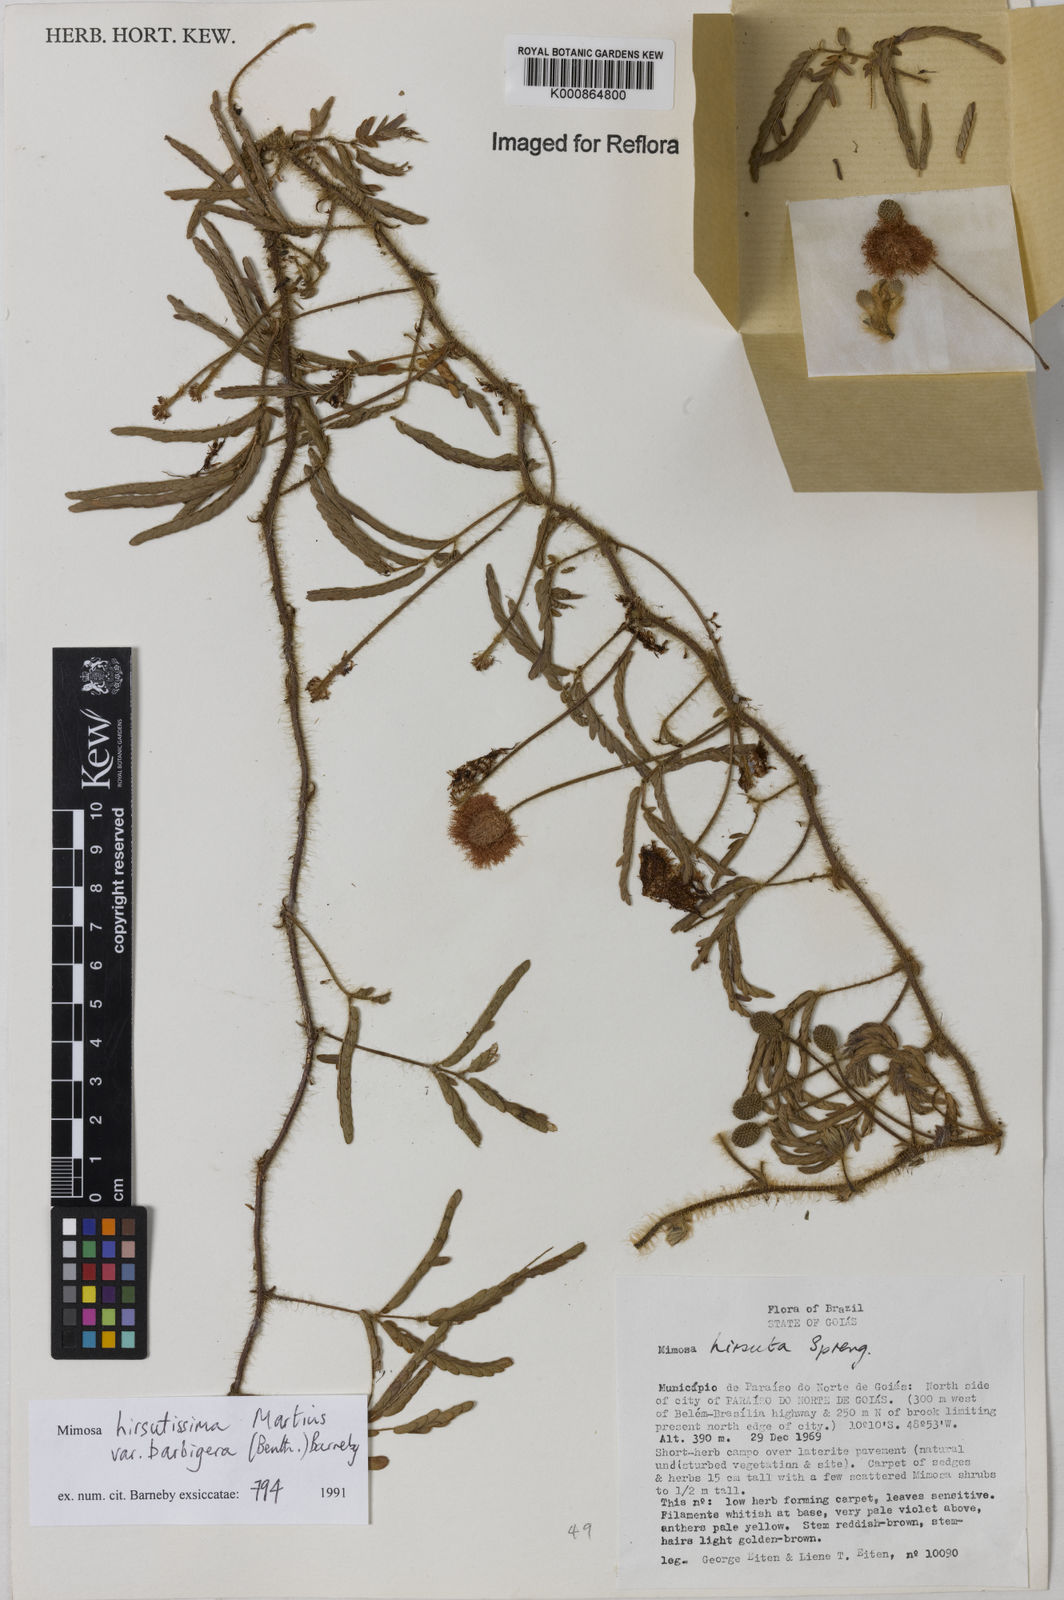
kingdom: Plantae
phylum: Tracheophyta
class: Magnoliopsida
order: Fabales
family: Fabaceae
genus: Mimosa
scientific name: Mimosa hirsutissima
